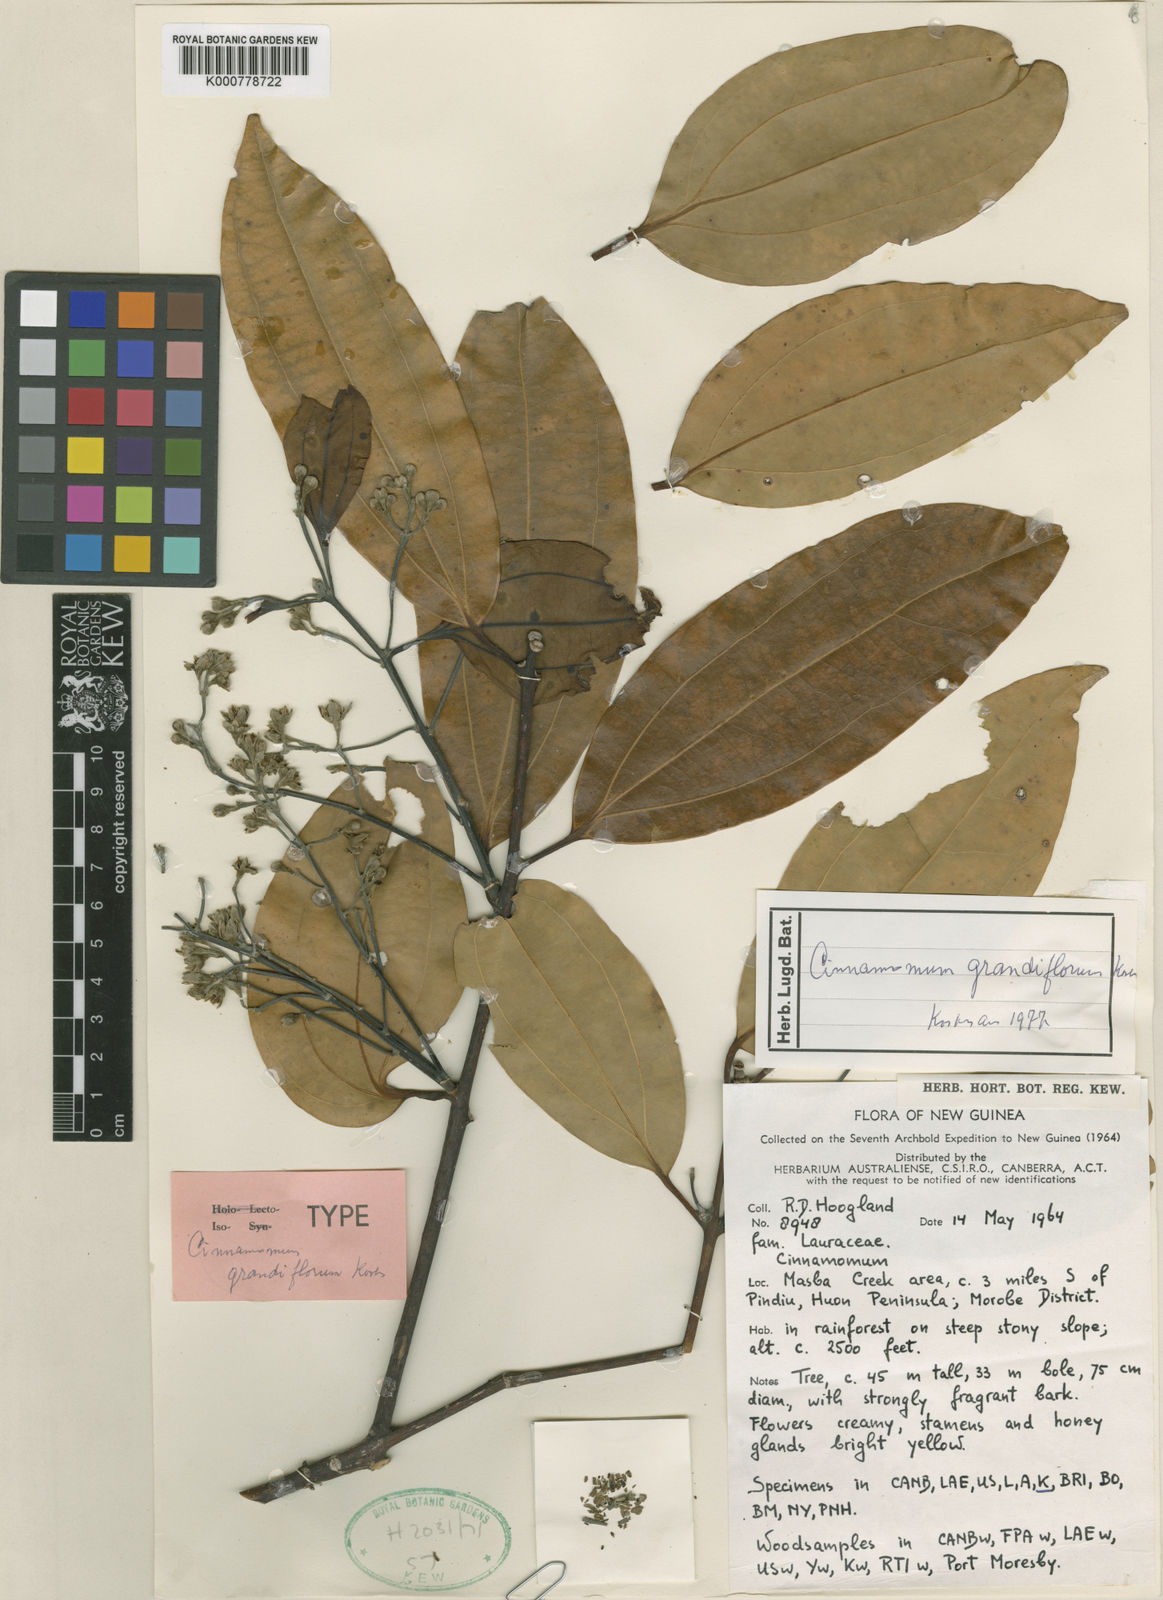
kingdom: Plantae
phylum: Tracheophyta
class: Magnoliopsida
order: Laurales
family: Lauraceae
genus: Cinnamomum
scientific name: Cinnamomum grandiflorum
